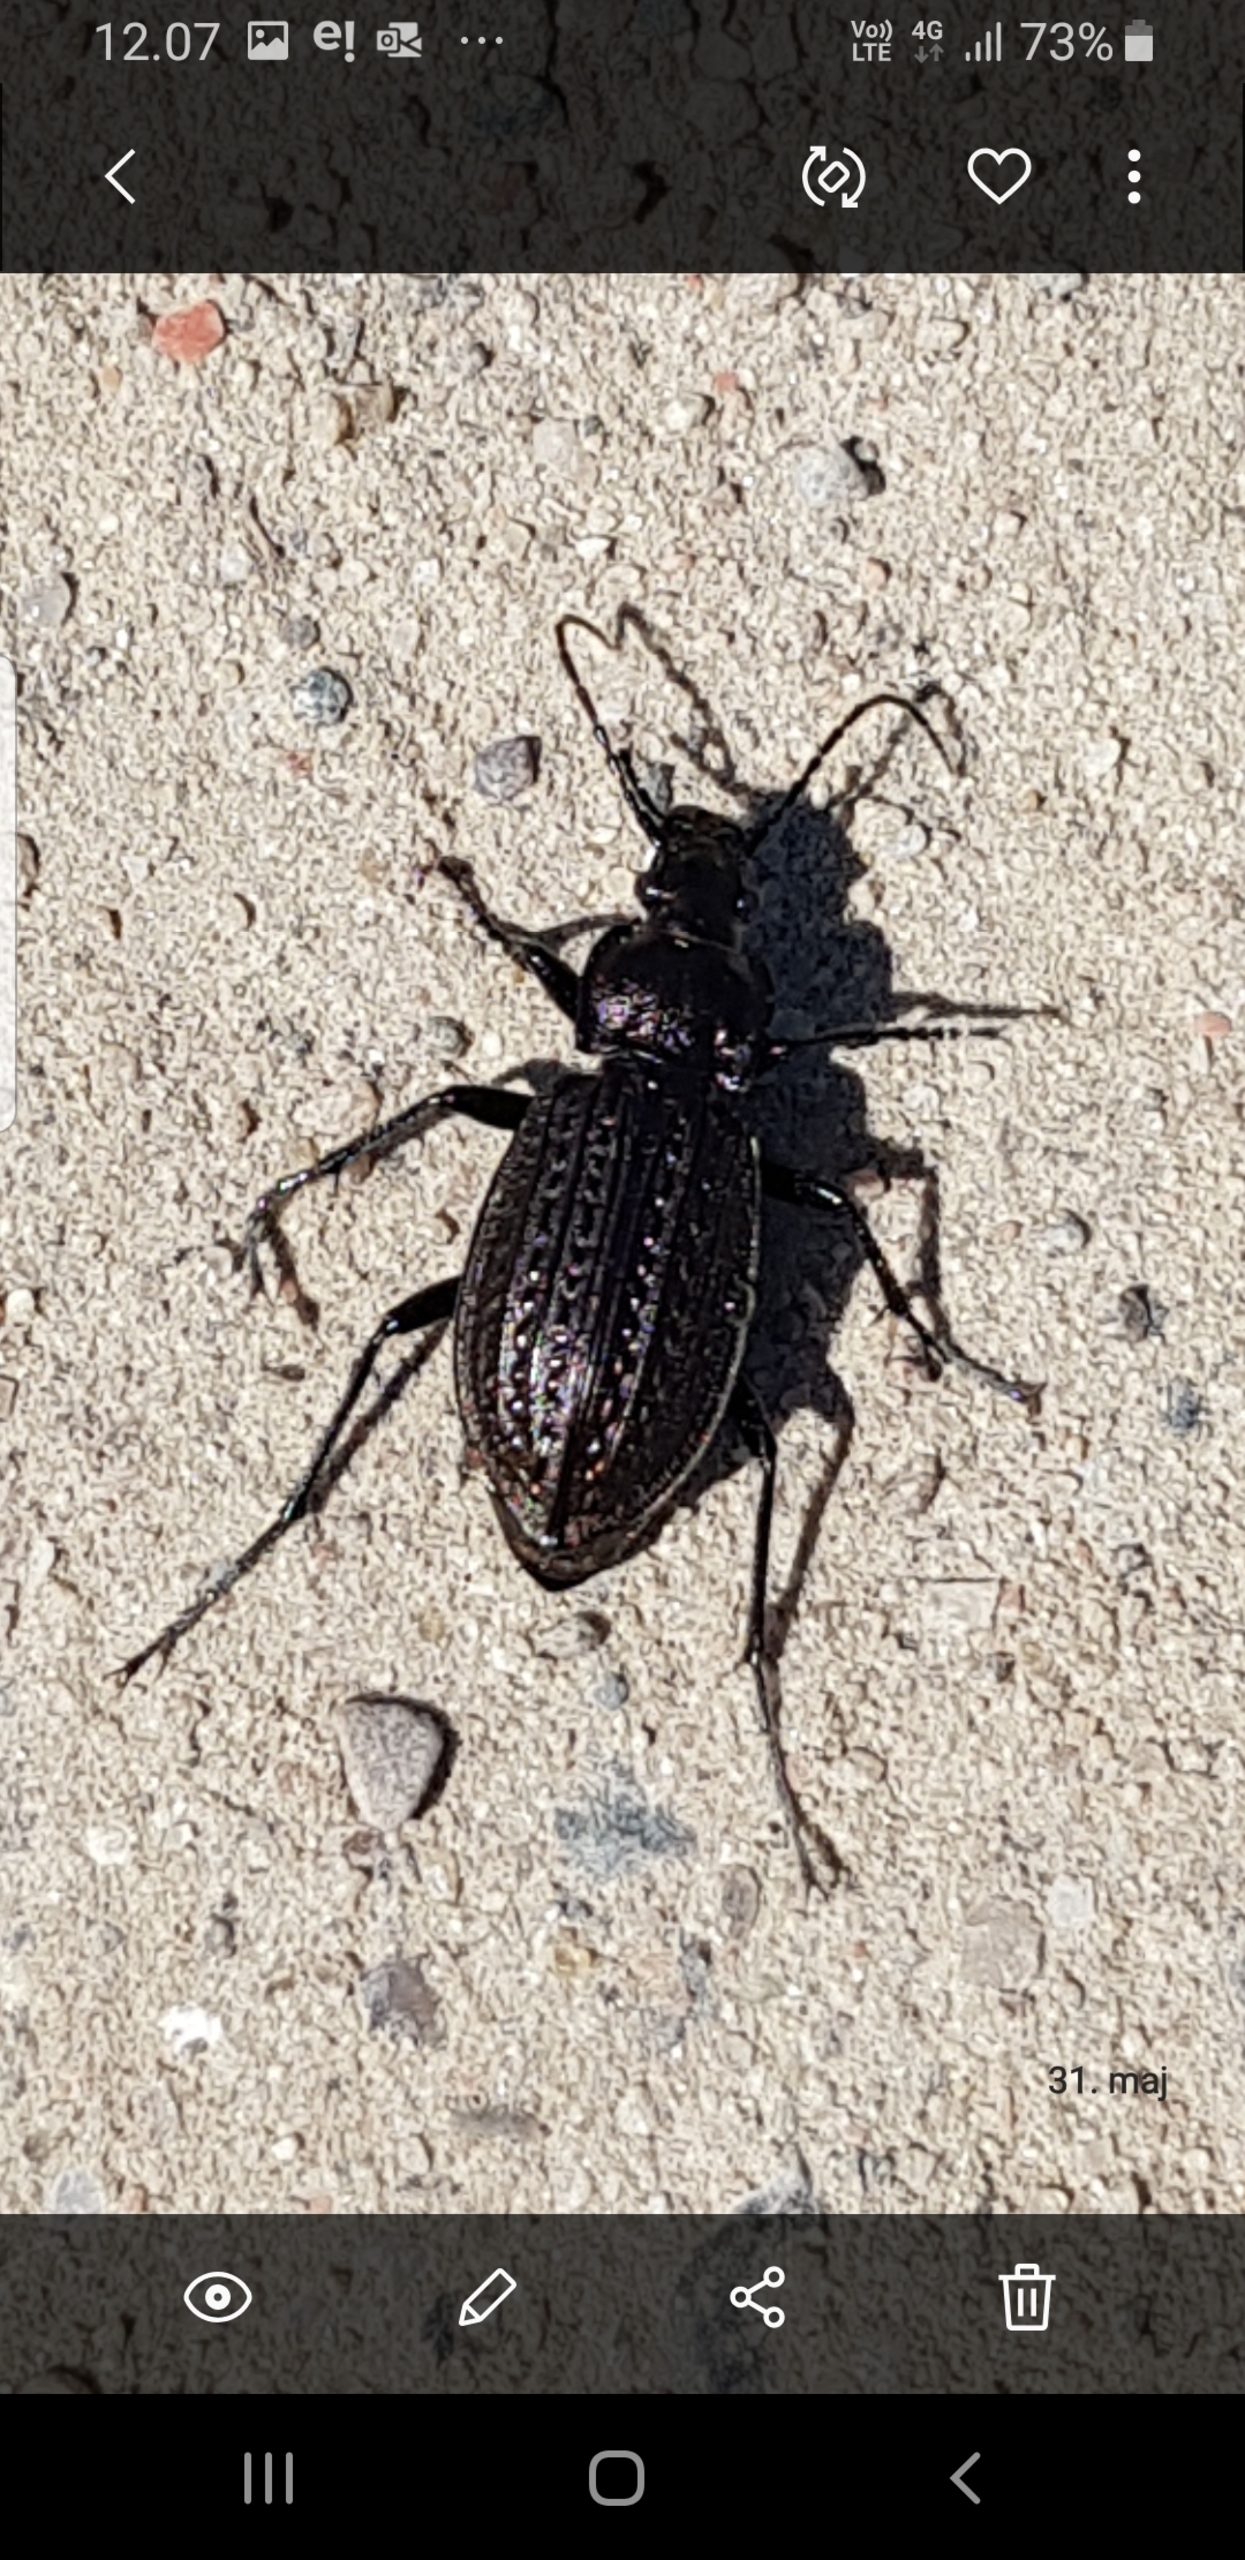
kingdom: Animalia
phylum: Arthropoda
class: Insecta
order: Coleoptera
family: Carabidae
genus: Carabus
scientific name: Carabus granulatus
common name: Kornet løber
